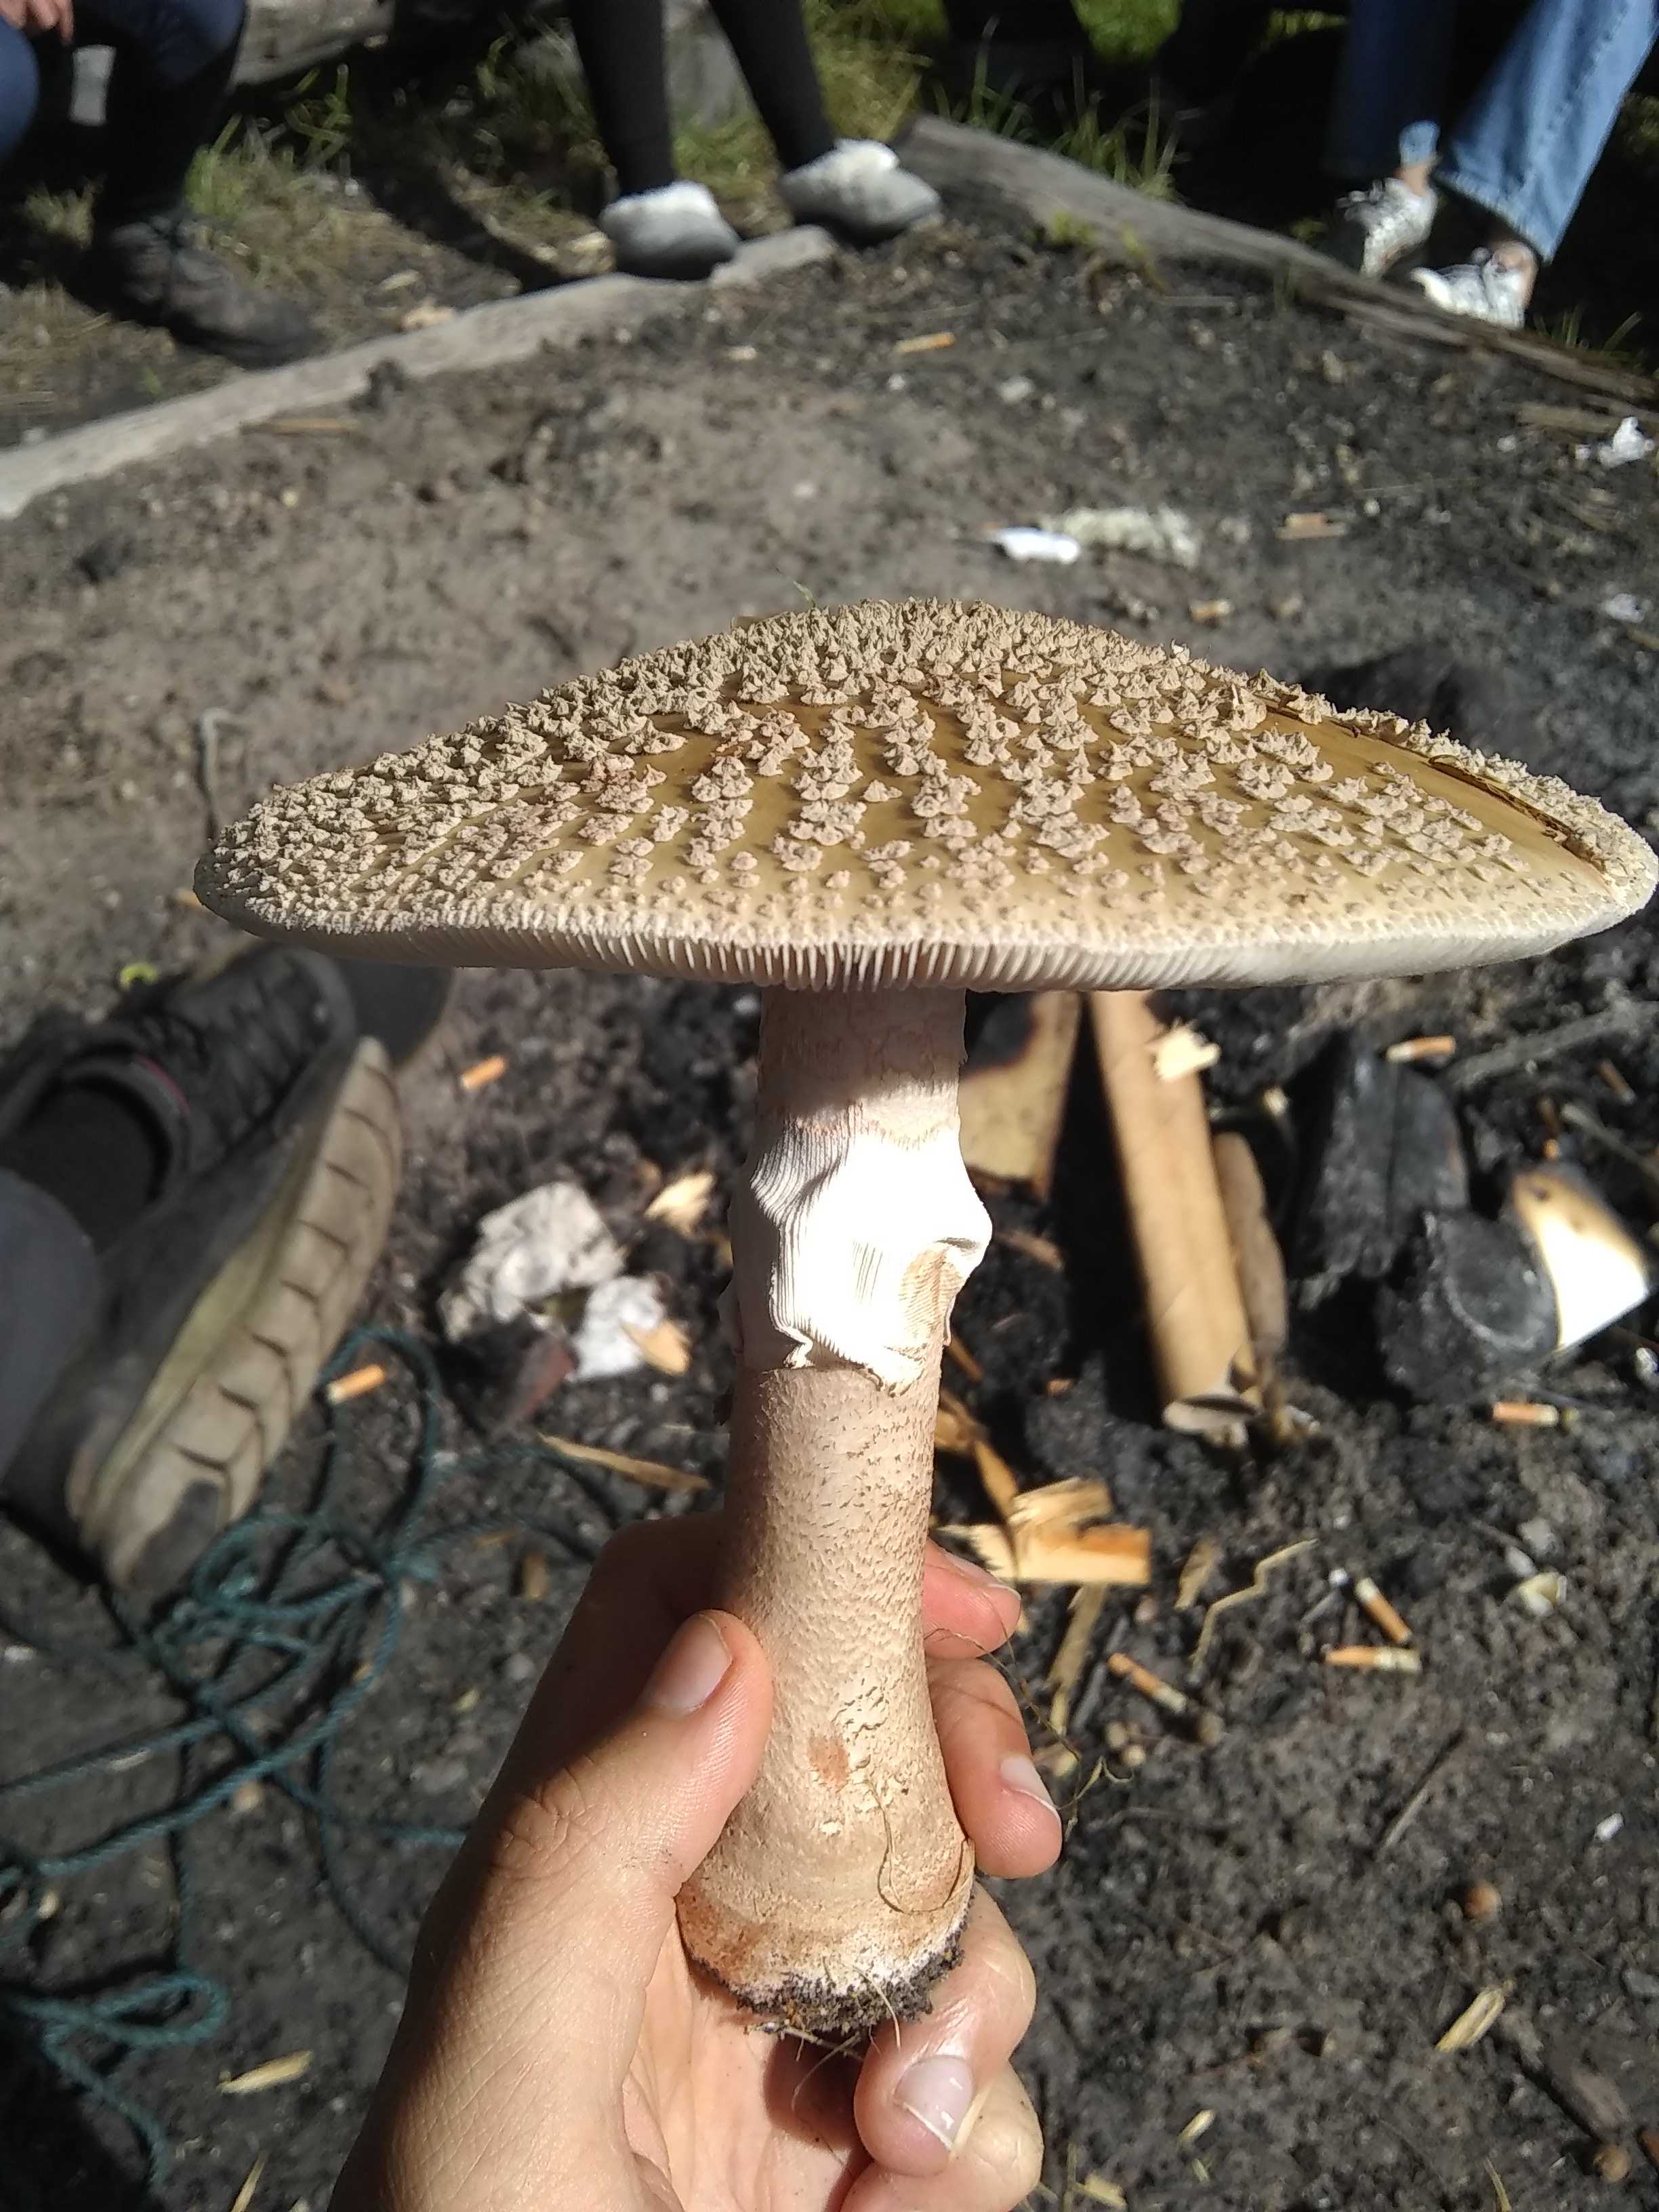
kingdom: Fungi
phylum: Basidiomycota
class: Agaricomycetes
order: Agaricales
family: Amanitaceae
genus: Amanita
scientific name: Amanita rubescens
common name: rødmende fluesvamp
